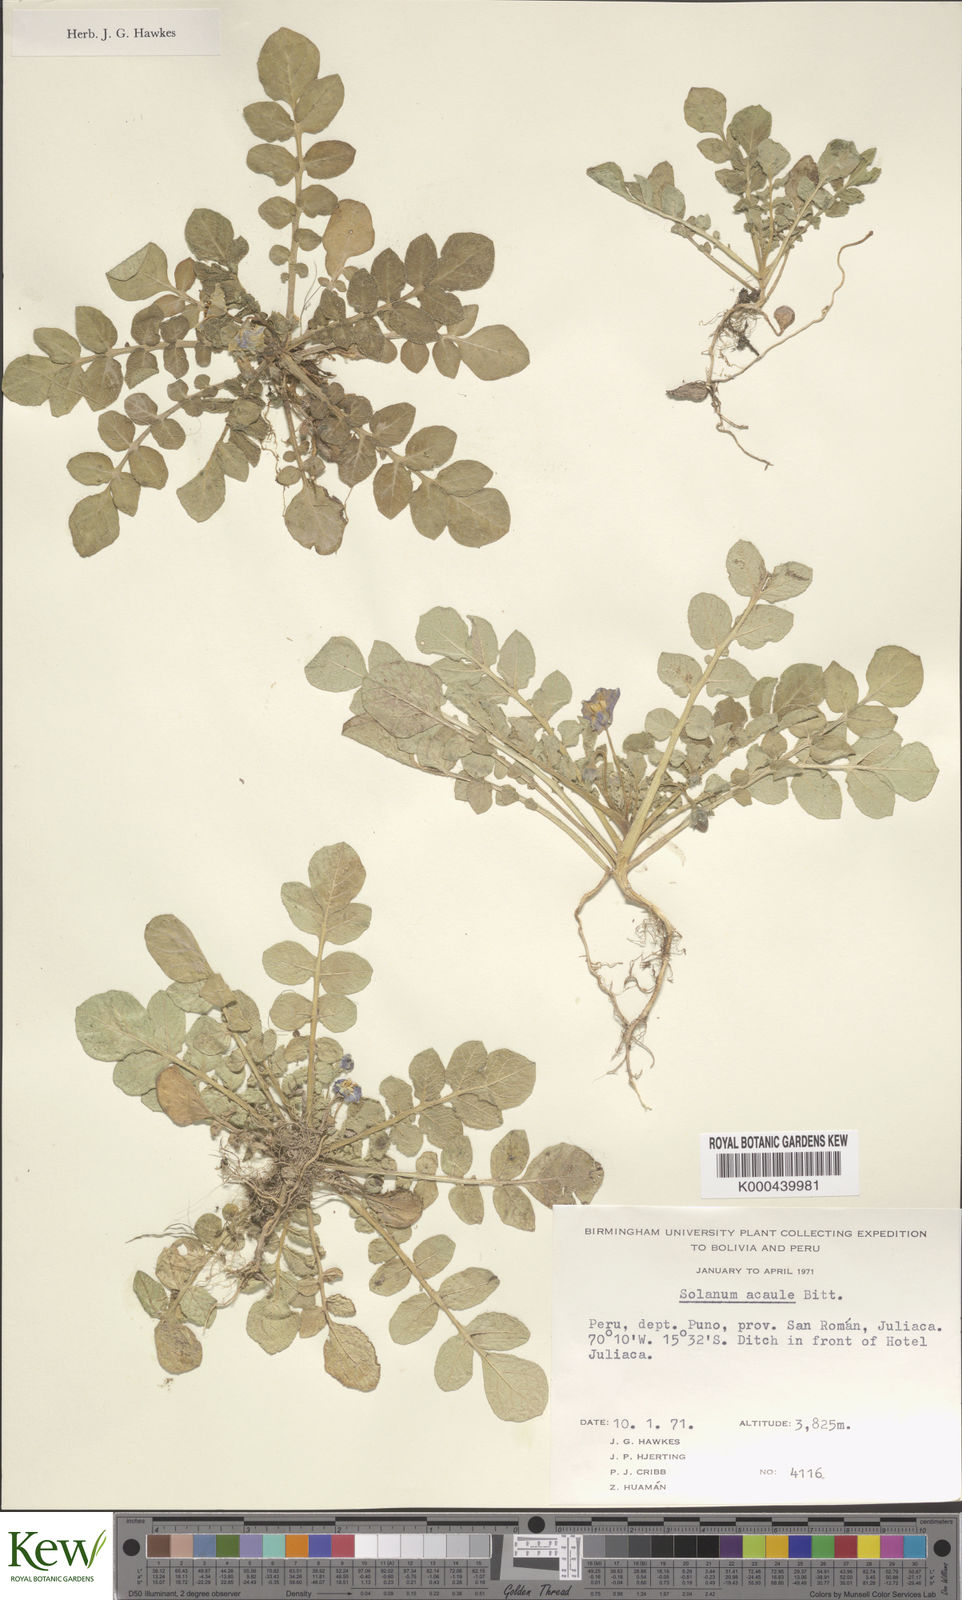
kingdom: Plantae
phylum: Tracheophyta
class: Magnoliopsida
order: Solanales
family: Solanaceae
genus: Solanum
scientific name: Solanum acaule
